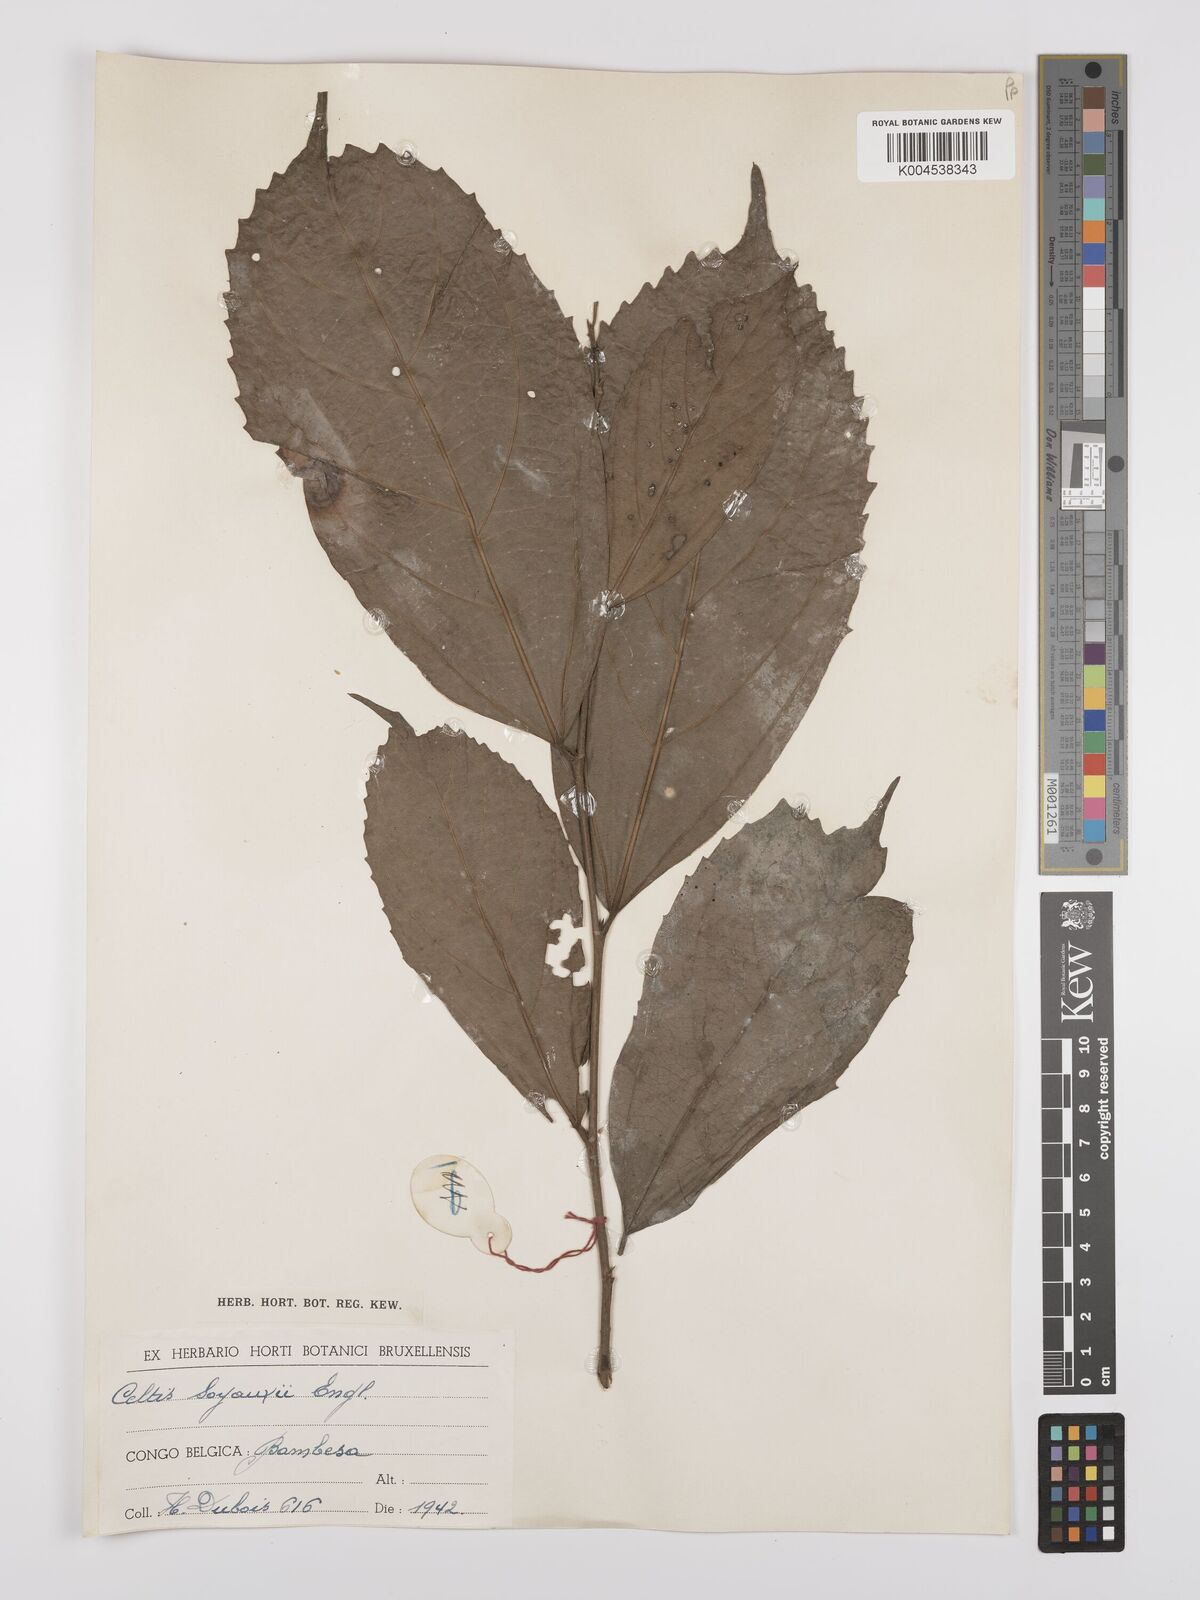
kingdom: Plantae
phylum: Tracheophyta
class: Magnoliopsida
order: Rosales
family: Cannabaceae
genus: Celtis
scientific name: Celtis mildbraedii
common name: Red-fruited stinkwood
